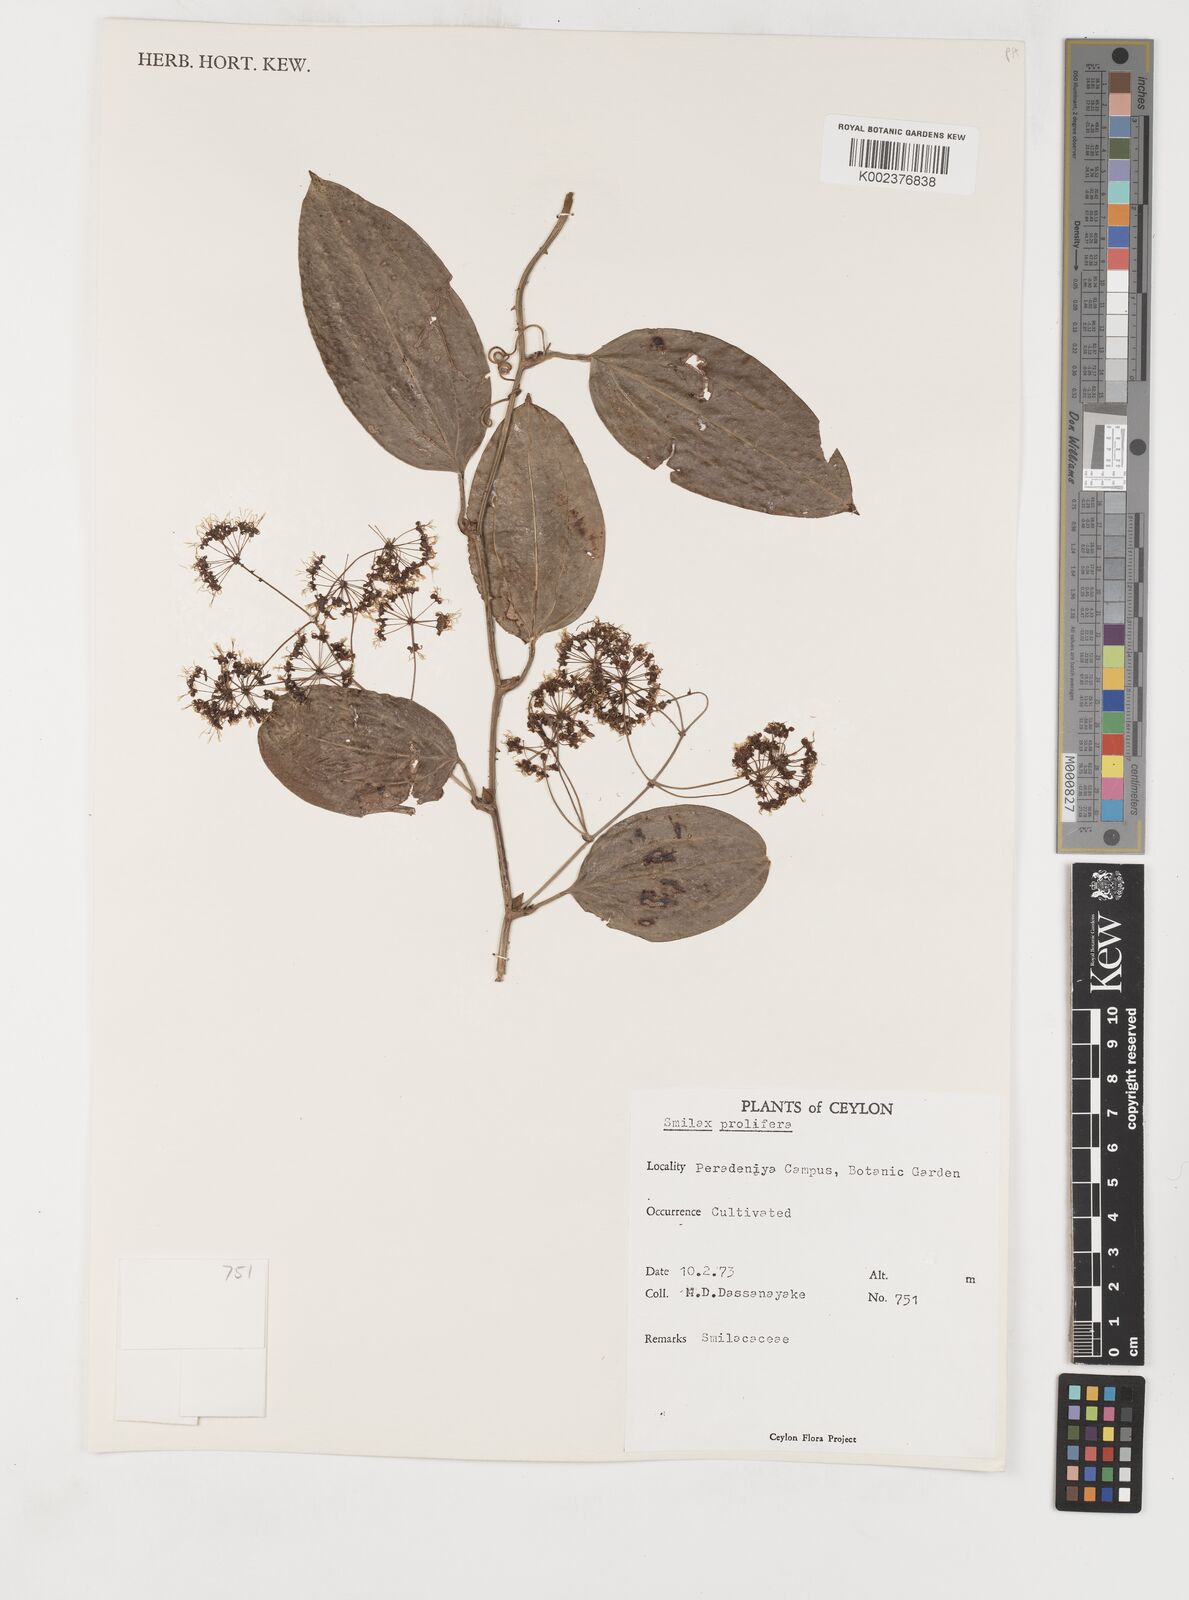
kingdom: Plantae
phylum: Tracheophyta
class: Liliopsida
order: Liliales
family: Smilacaceae
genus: Smilax
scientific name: Smilax prolifera
